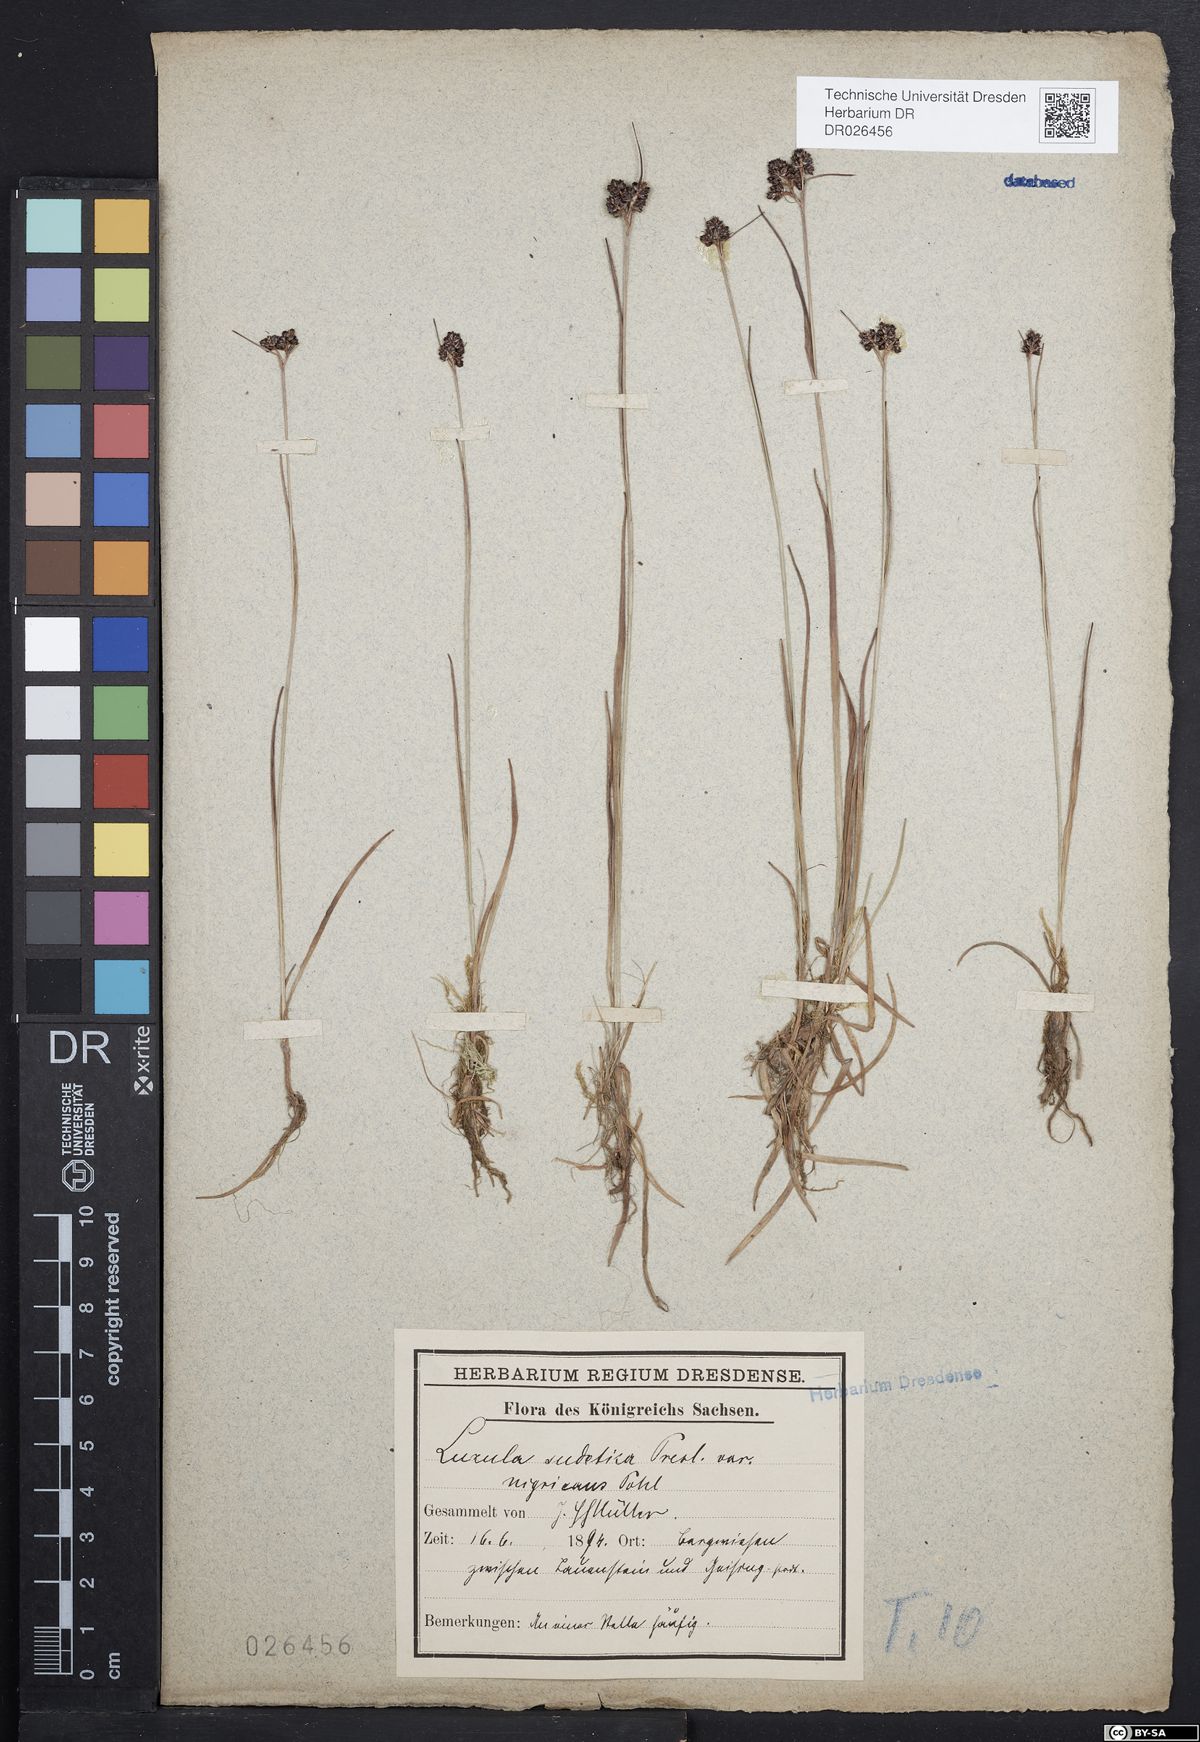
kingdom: Plantae
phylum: Tracheophyta
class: Liliopsida
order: Poales
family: Juncaceae
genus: Luzula
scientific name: Luzula sudetica
